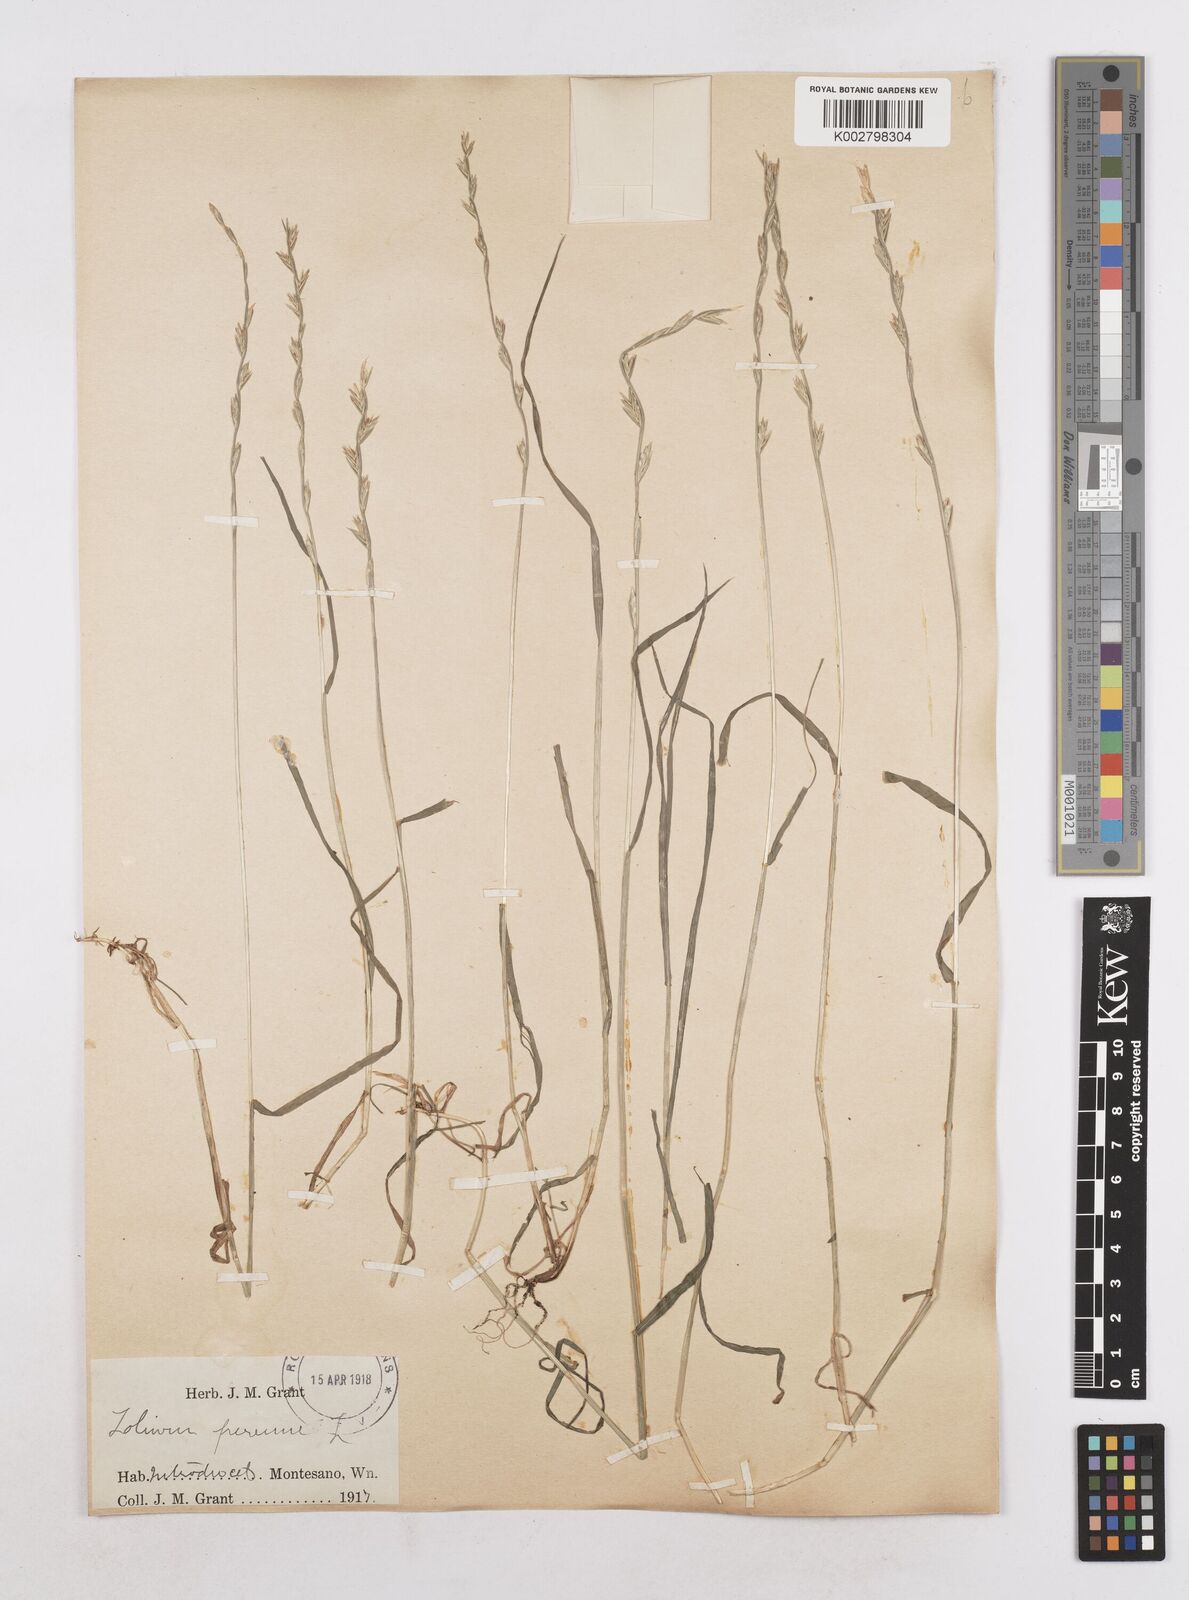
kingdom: Plantae
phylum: Tracheophyta
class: Liliopsida
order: Poales
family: Poaceae
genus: Lolium
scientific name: Lolium perenne
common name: Perennial ryegrass
